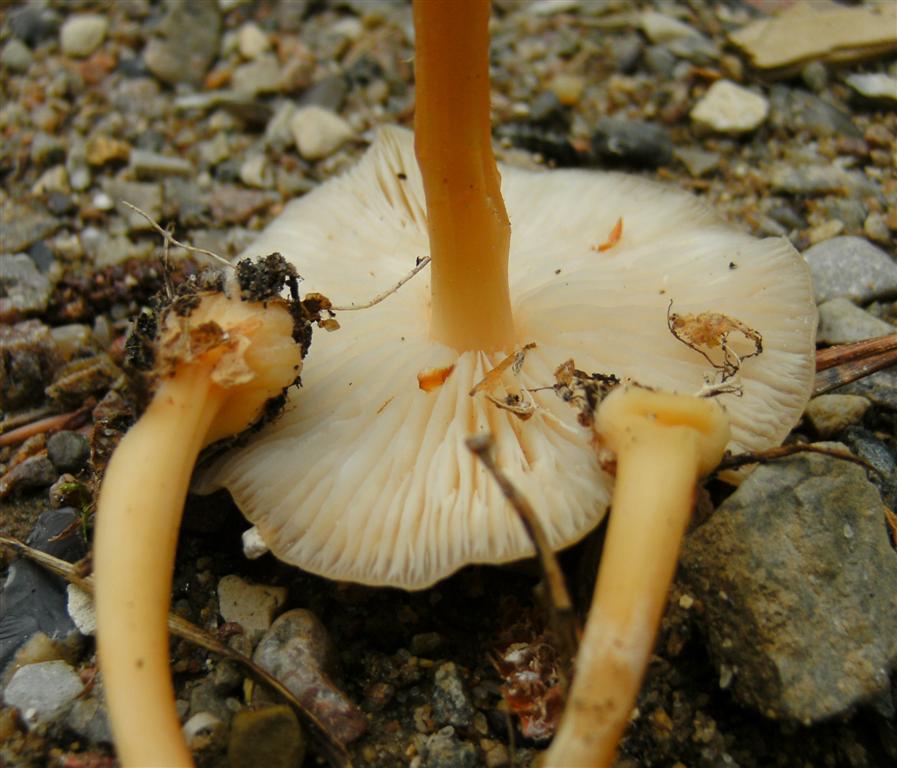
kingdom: Fungi
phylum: Basidiomycota
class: Agaricomycetes
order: Agaricales
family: Omphalotaceae
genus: Gymnopus
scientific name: Gymnopus aquosus
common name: bleg fladhat
